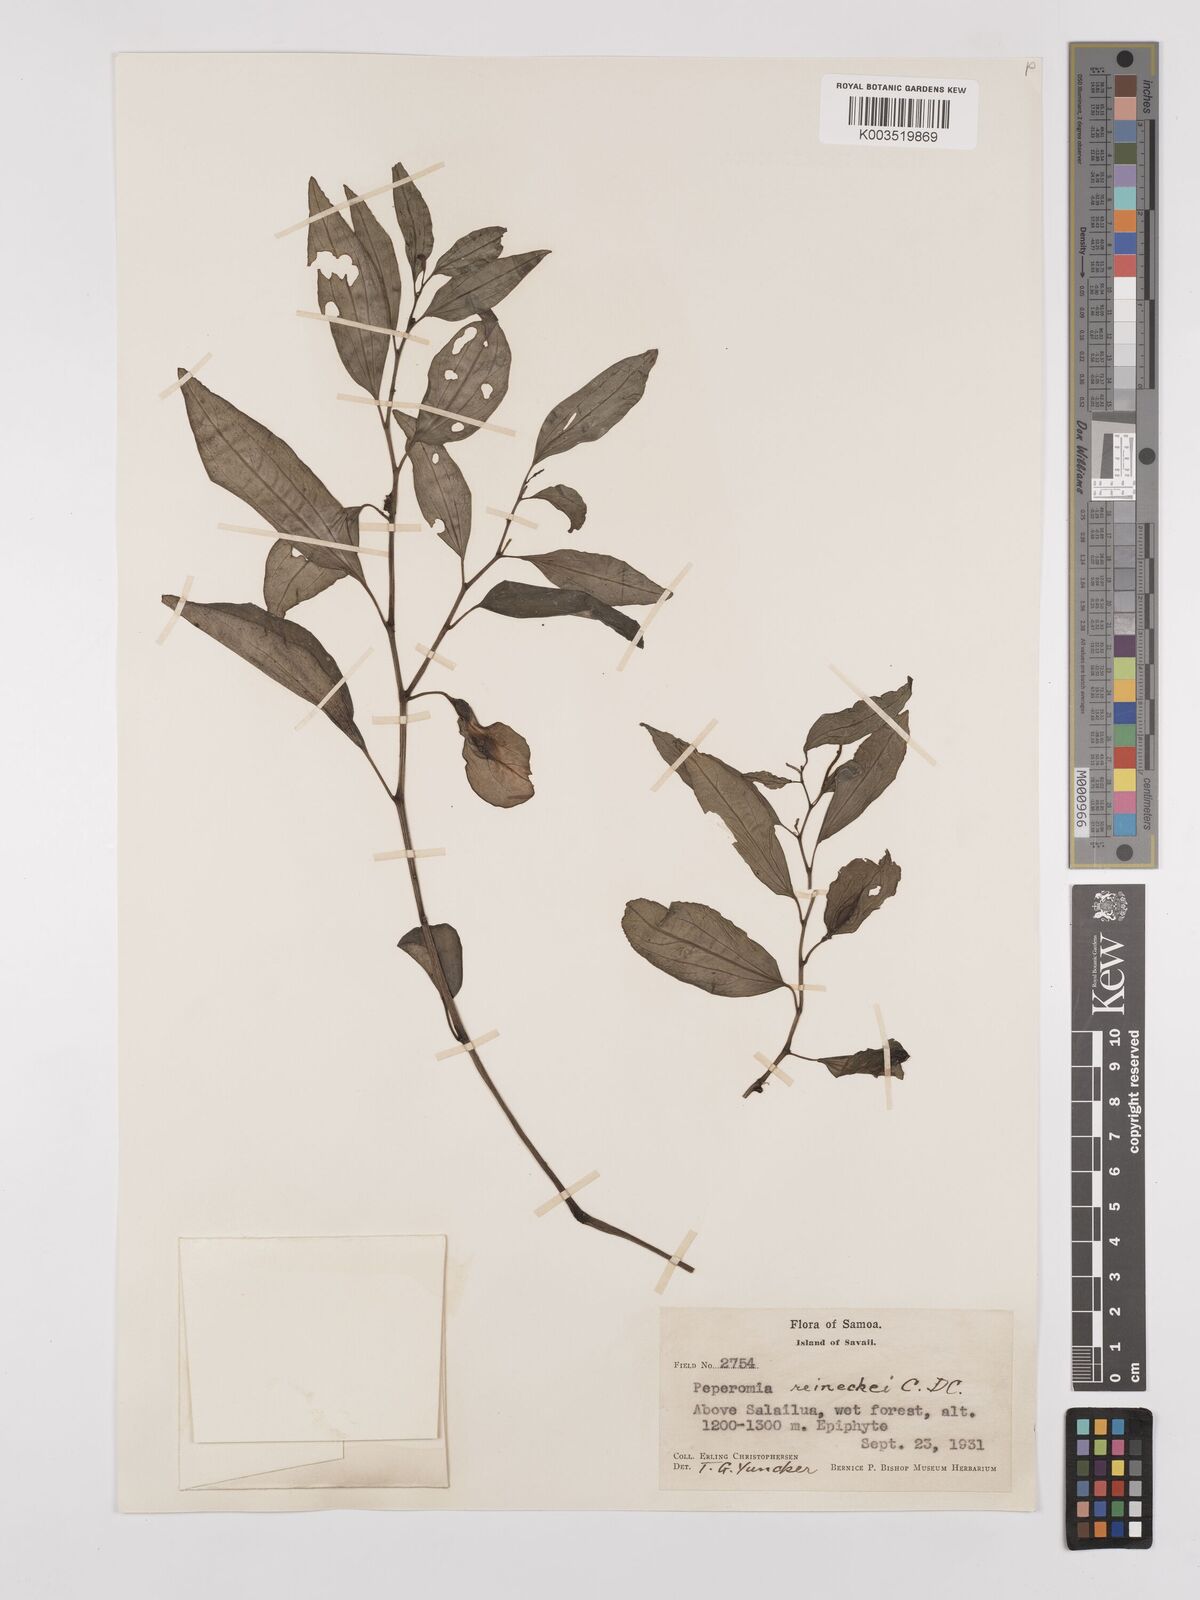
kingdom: Plantae
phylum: Tracheophyta
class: Magnoliopsida
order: Piperales
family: Piperaceae
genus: Peperomia
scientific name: Peperomia reineckei
